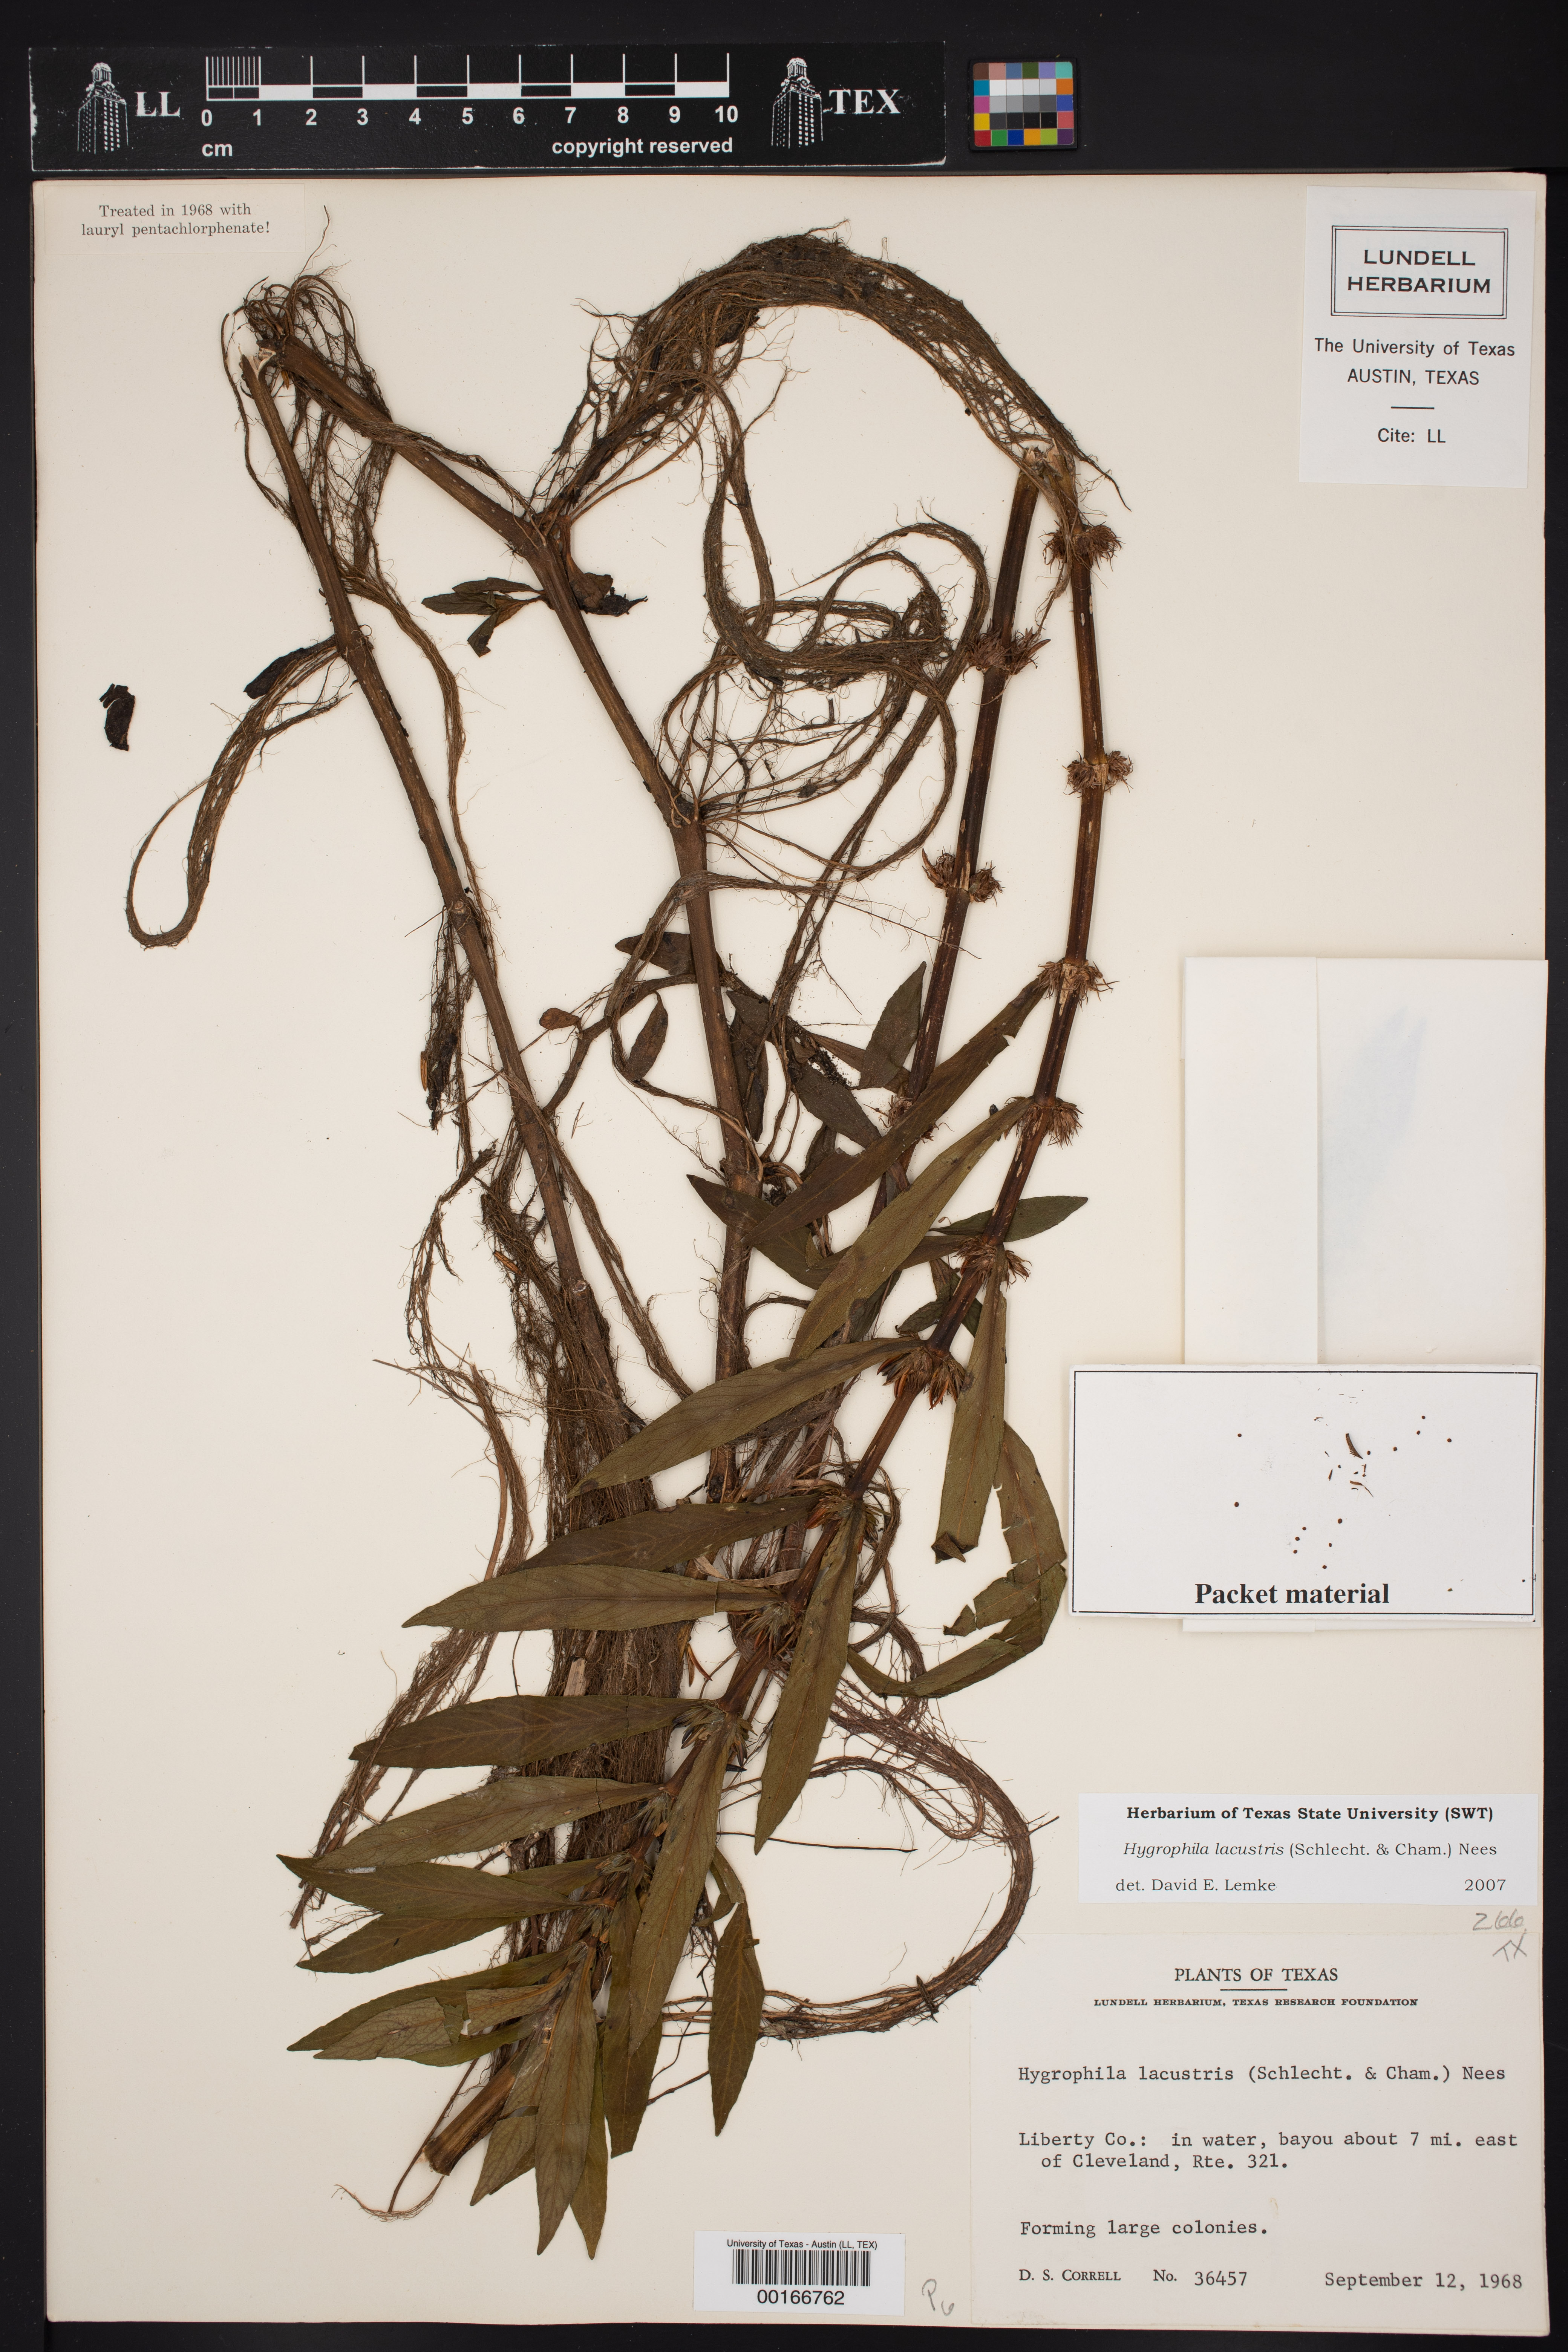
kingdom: Plantae
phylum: Tracheophyta
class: Magnoliopsida
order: Lamiales
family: Acanthaceae
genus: Hygrophila
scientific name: Hygrophila costata
